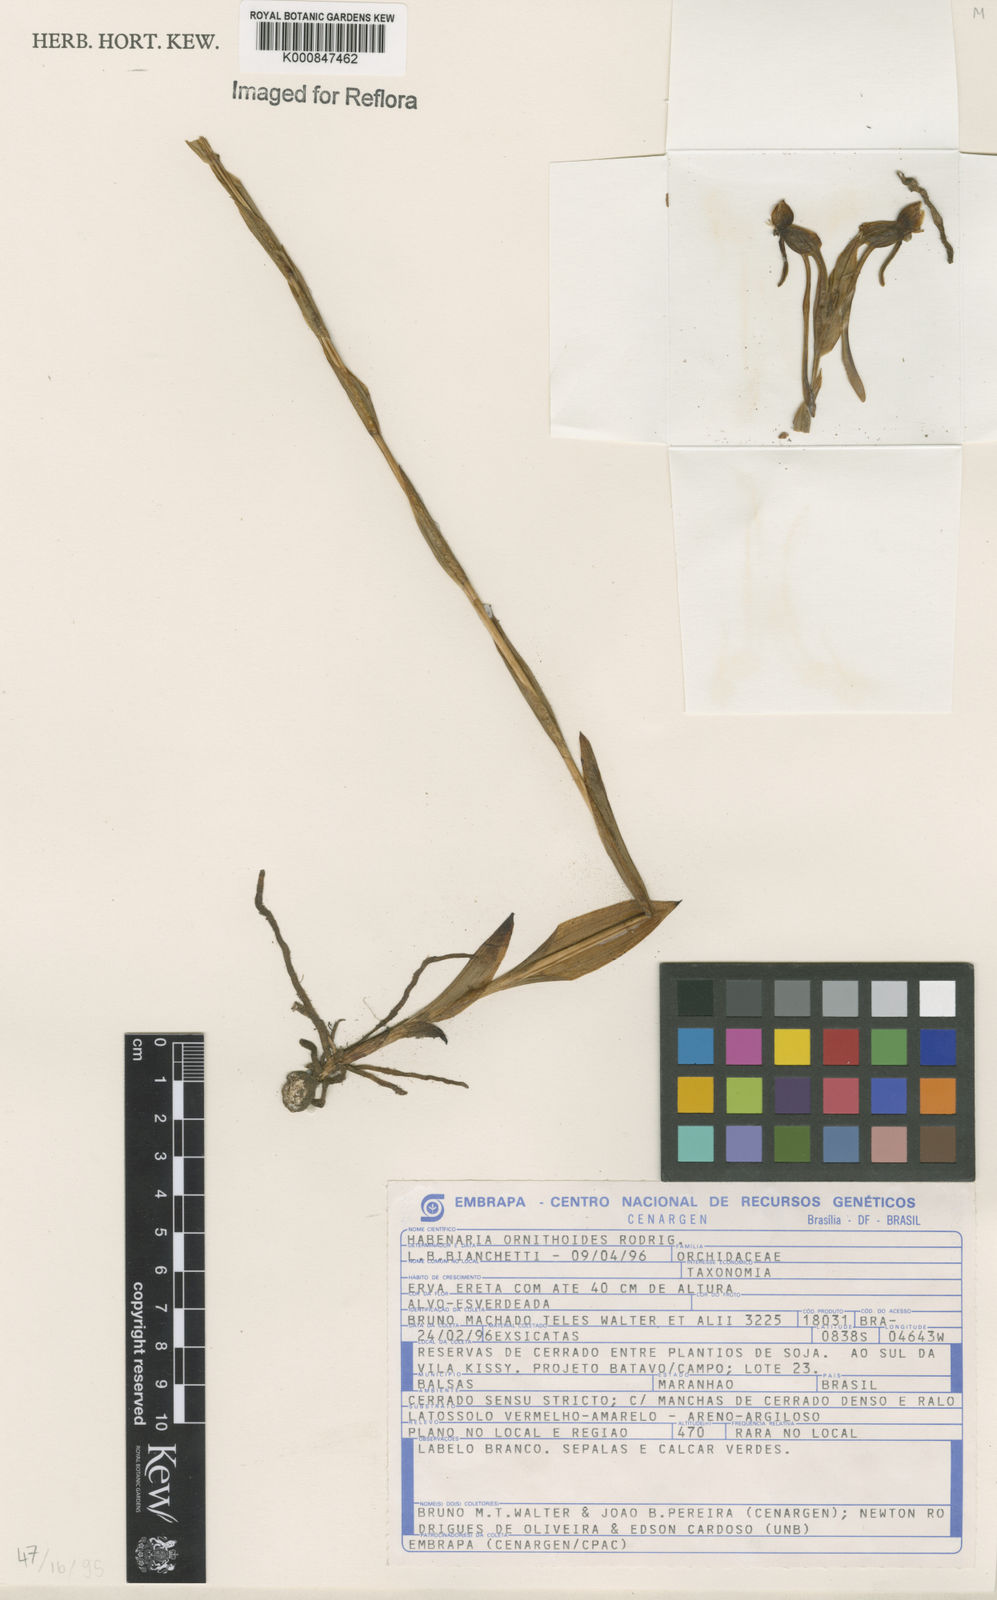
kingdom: Plantae
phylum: Tracheophyta
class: Liliopsida
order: Asparagales
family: Orchidaceae
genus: Habenaria
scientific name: Habenaria obtusa
